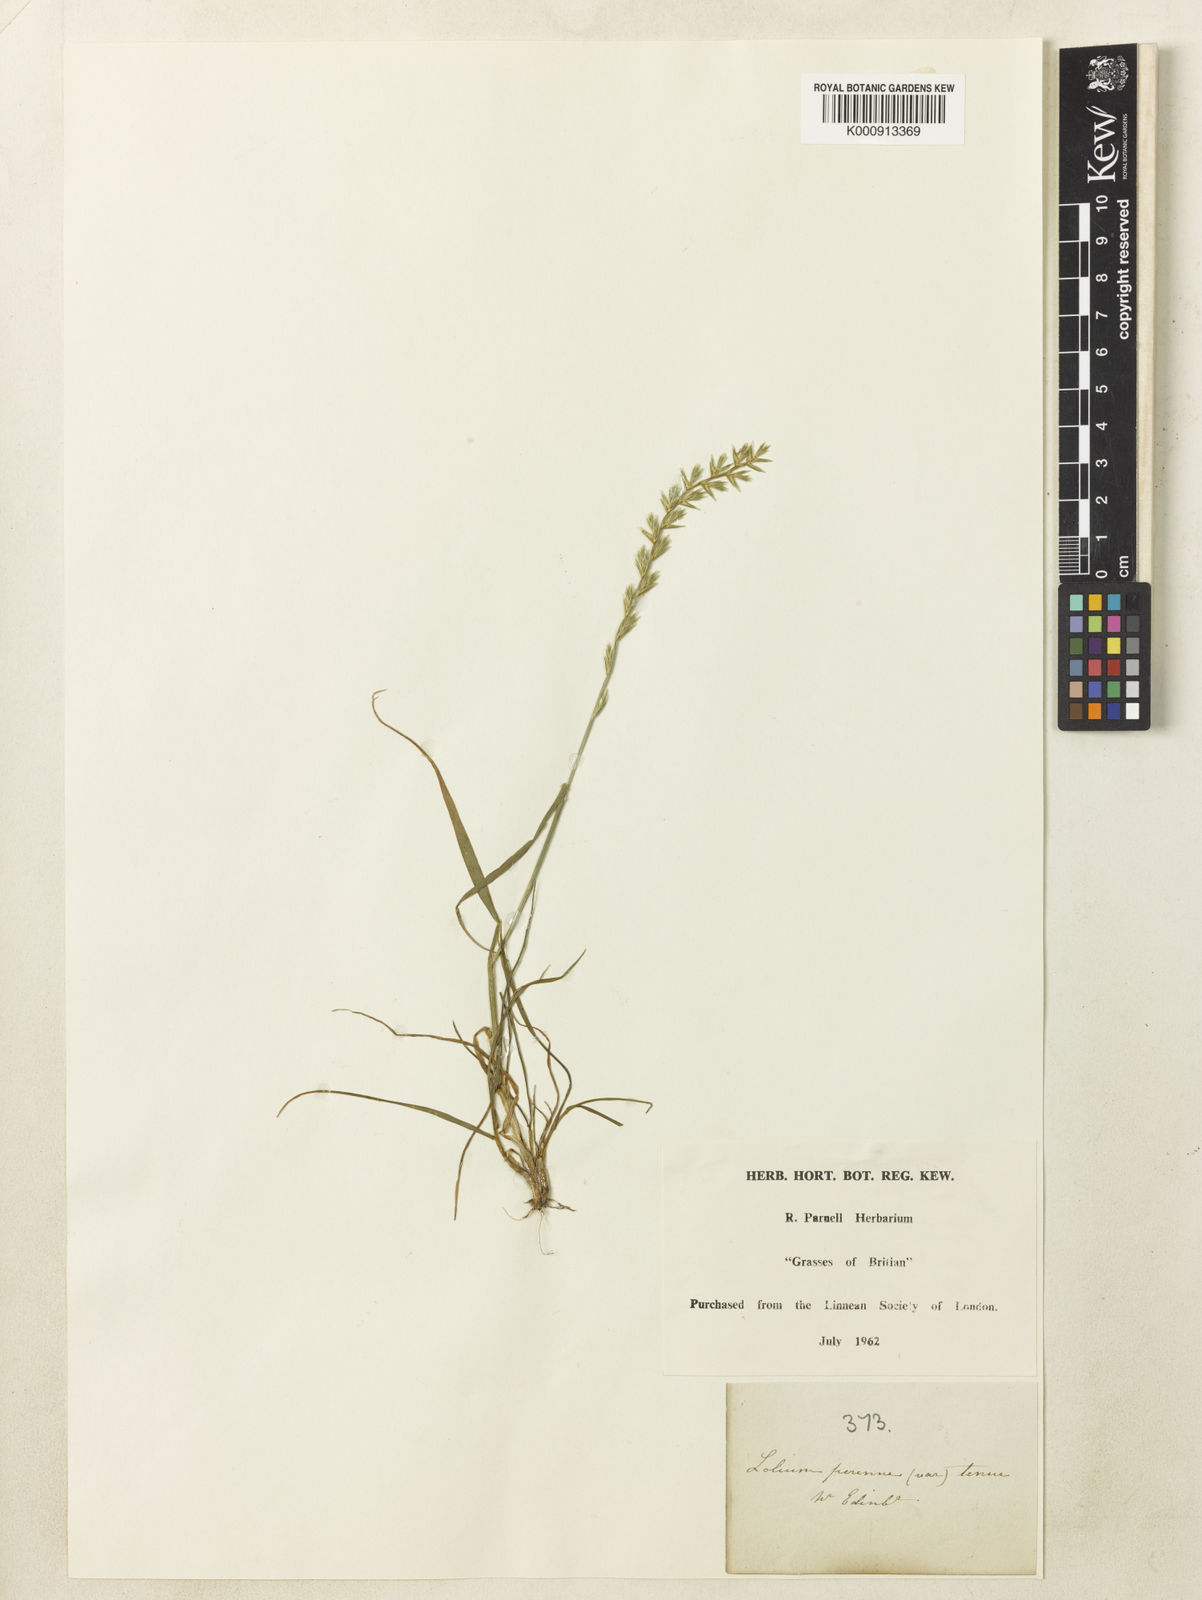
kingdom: Plantae
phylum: Tracheophyta
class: Liliopsida
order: Poales
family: Poaceae
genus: Lolium
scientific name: Lolium perenne
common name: Perennial ryegrass
